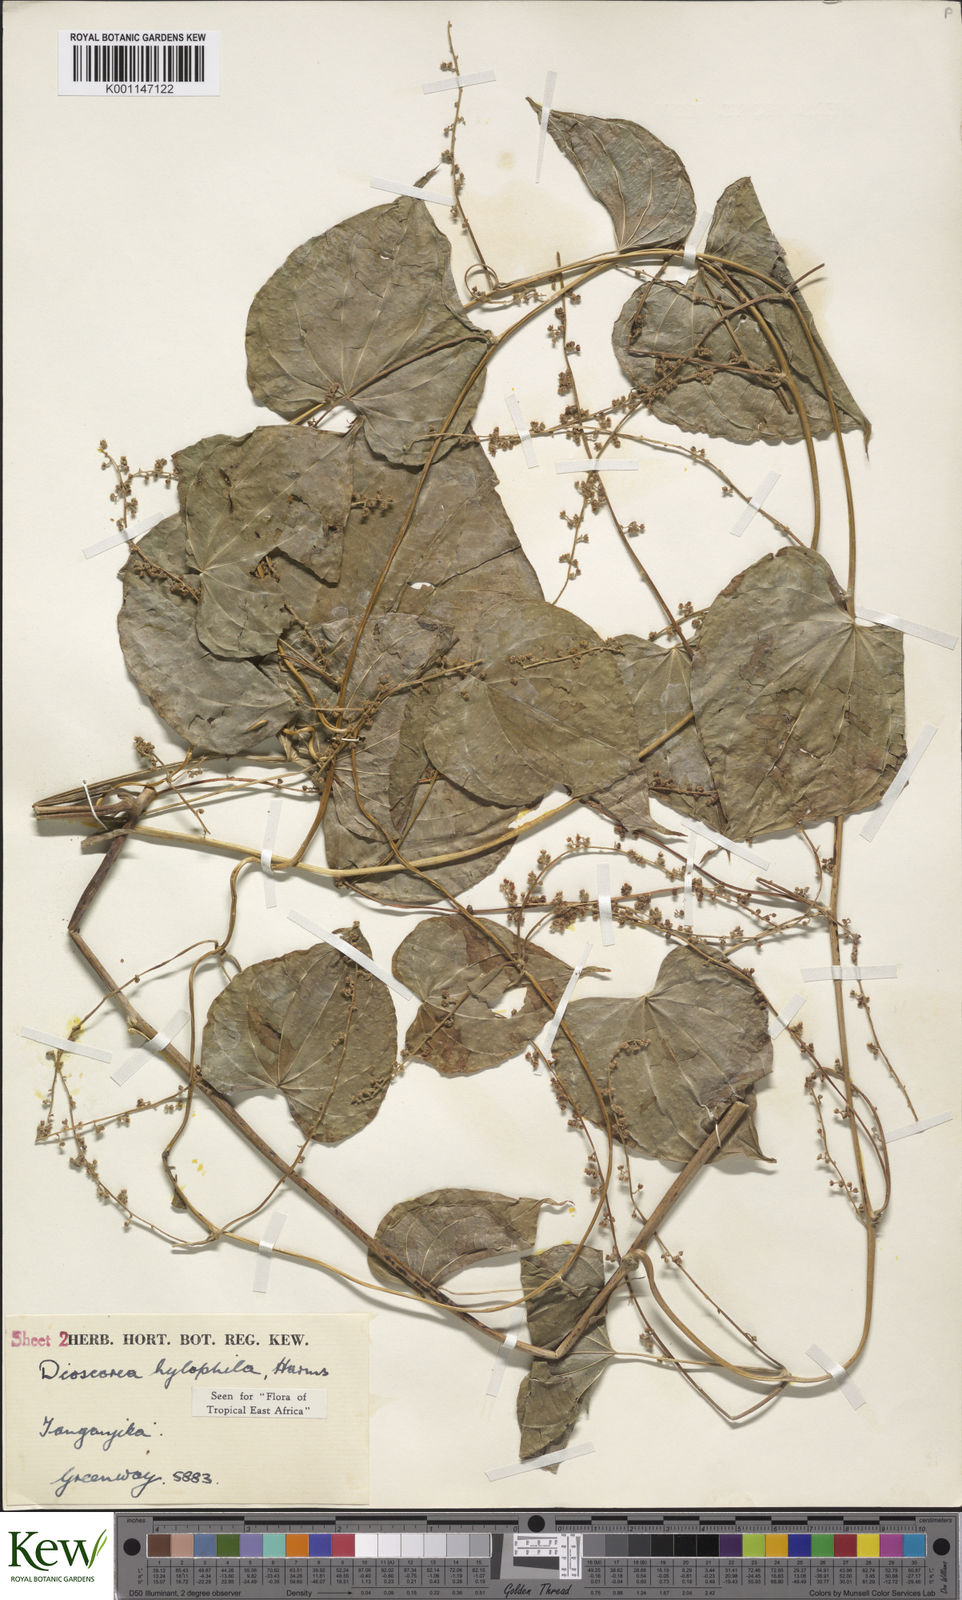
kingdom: Plantae
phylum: Tracheophyta
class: Liliopsida
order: Dioscoreales
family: Dioscoreaceae
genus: Dioscorea
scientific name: Dioscorea
